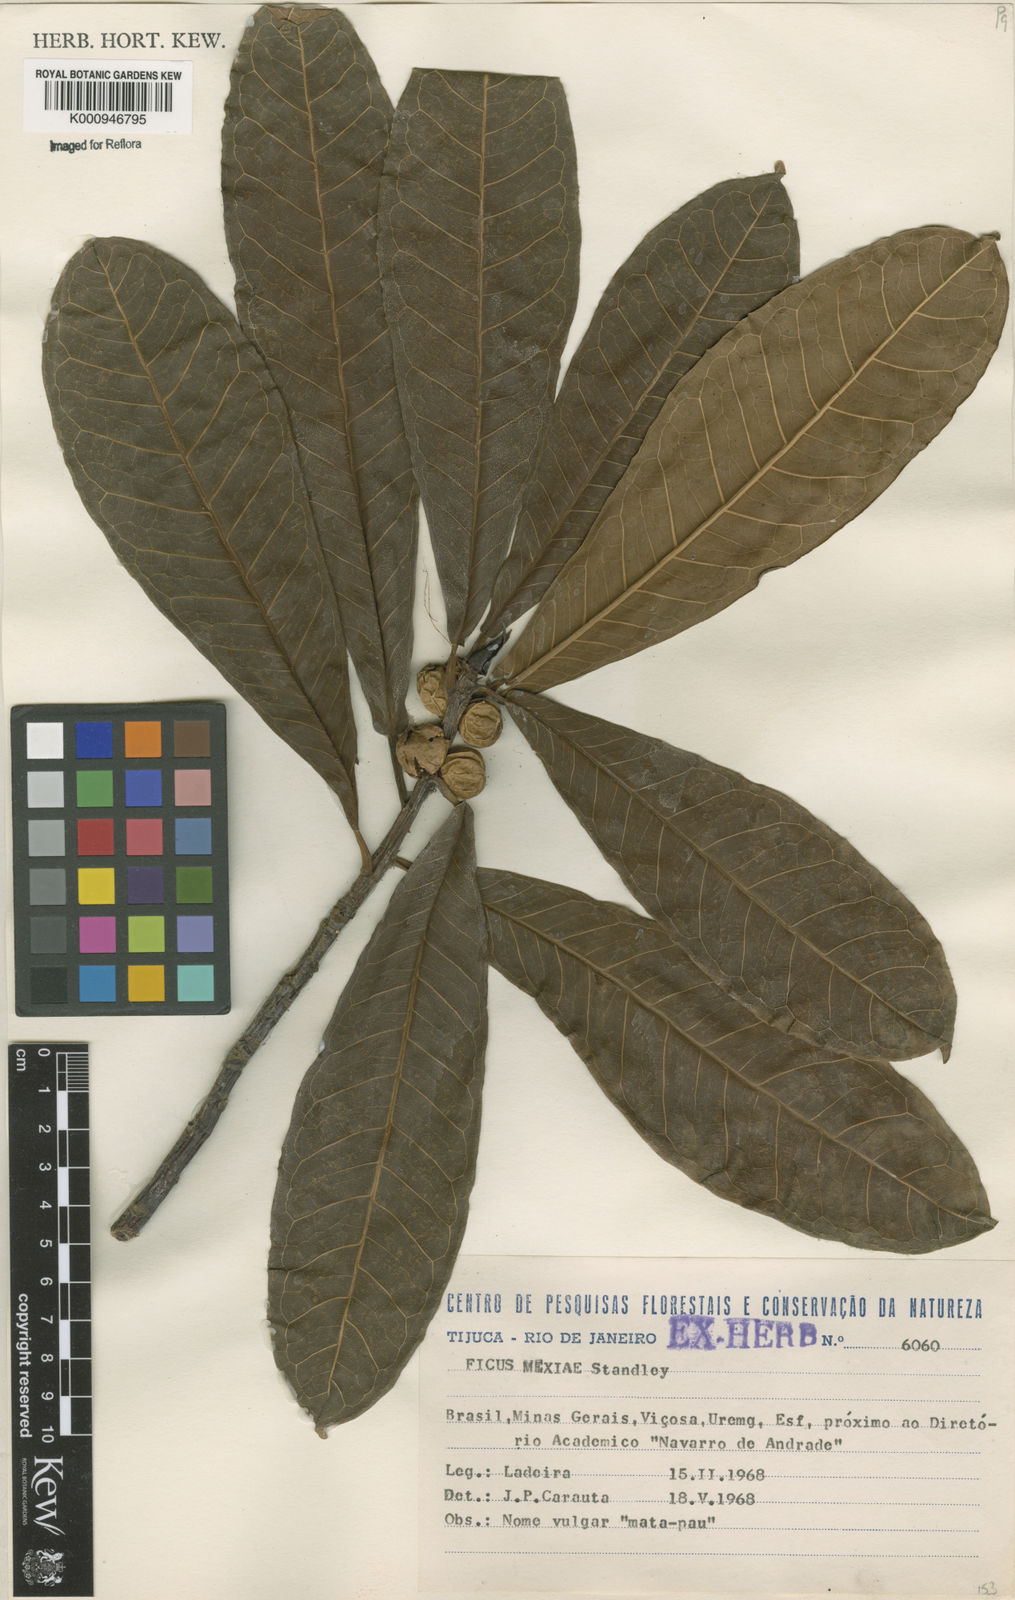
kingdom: Plantae
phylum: Tracheophyta
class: Magnoliopsida
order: Rosales
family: Moraceae
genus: Ficus
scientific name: Ficus mexiae
